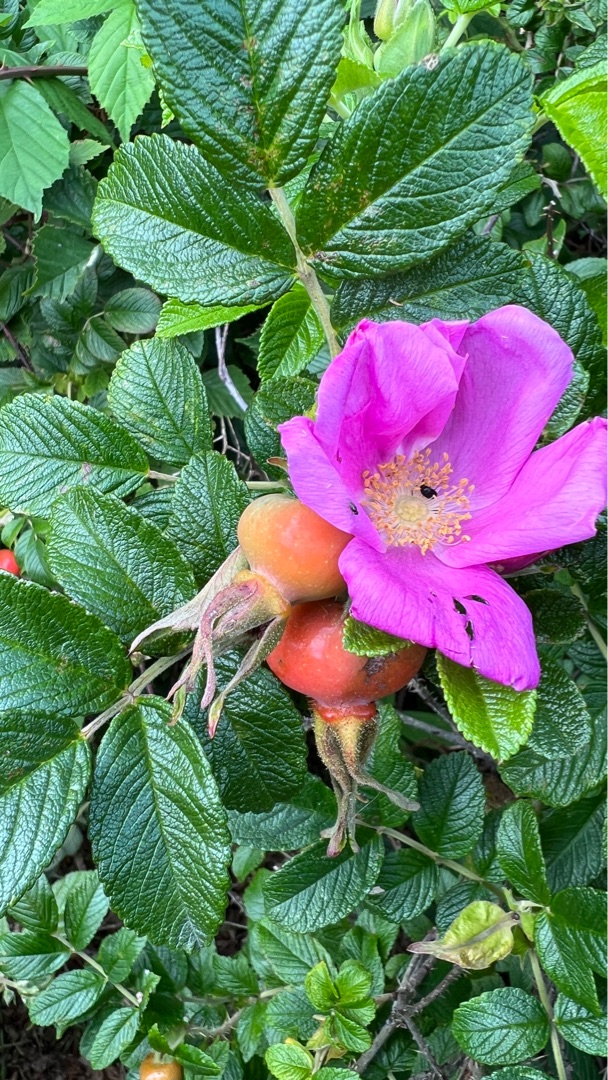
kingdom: Plantae
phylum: Tracheophyta
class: Magnoliopsida
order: Rosales
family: Rosaceae
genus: Rosa
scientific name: Rosa rugosa
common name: Rynket rose
